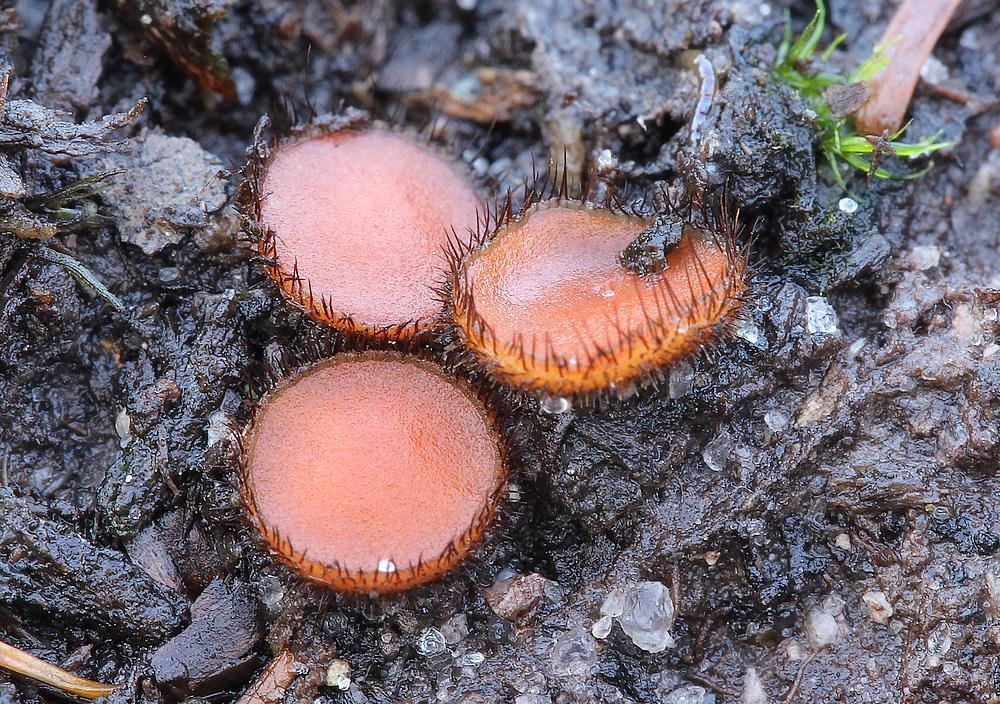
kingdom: Fungi
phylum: Ascomycota
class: Pezizomycetes
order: Pezizales
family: Pyronemataceae
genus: Scutellinia
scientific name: Scutellinia setosa
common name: pindsvine-skjoldbæger
